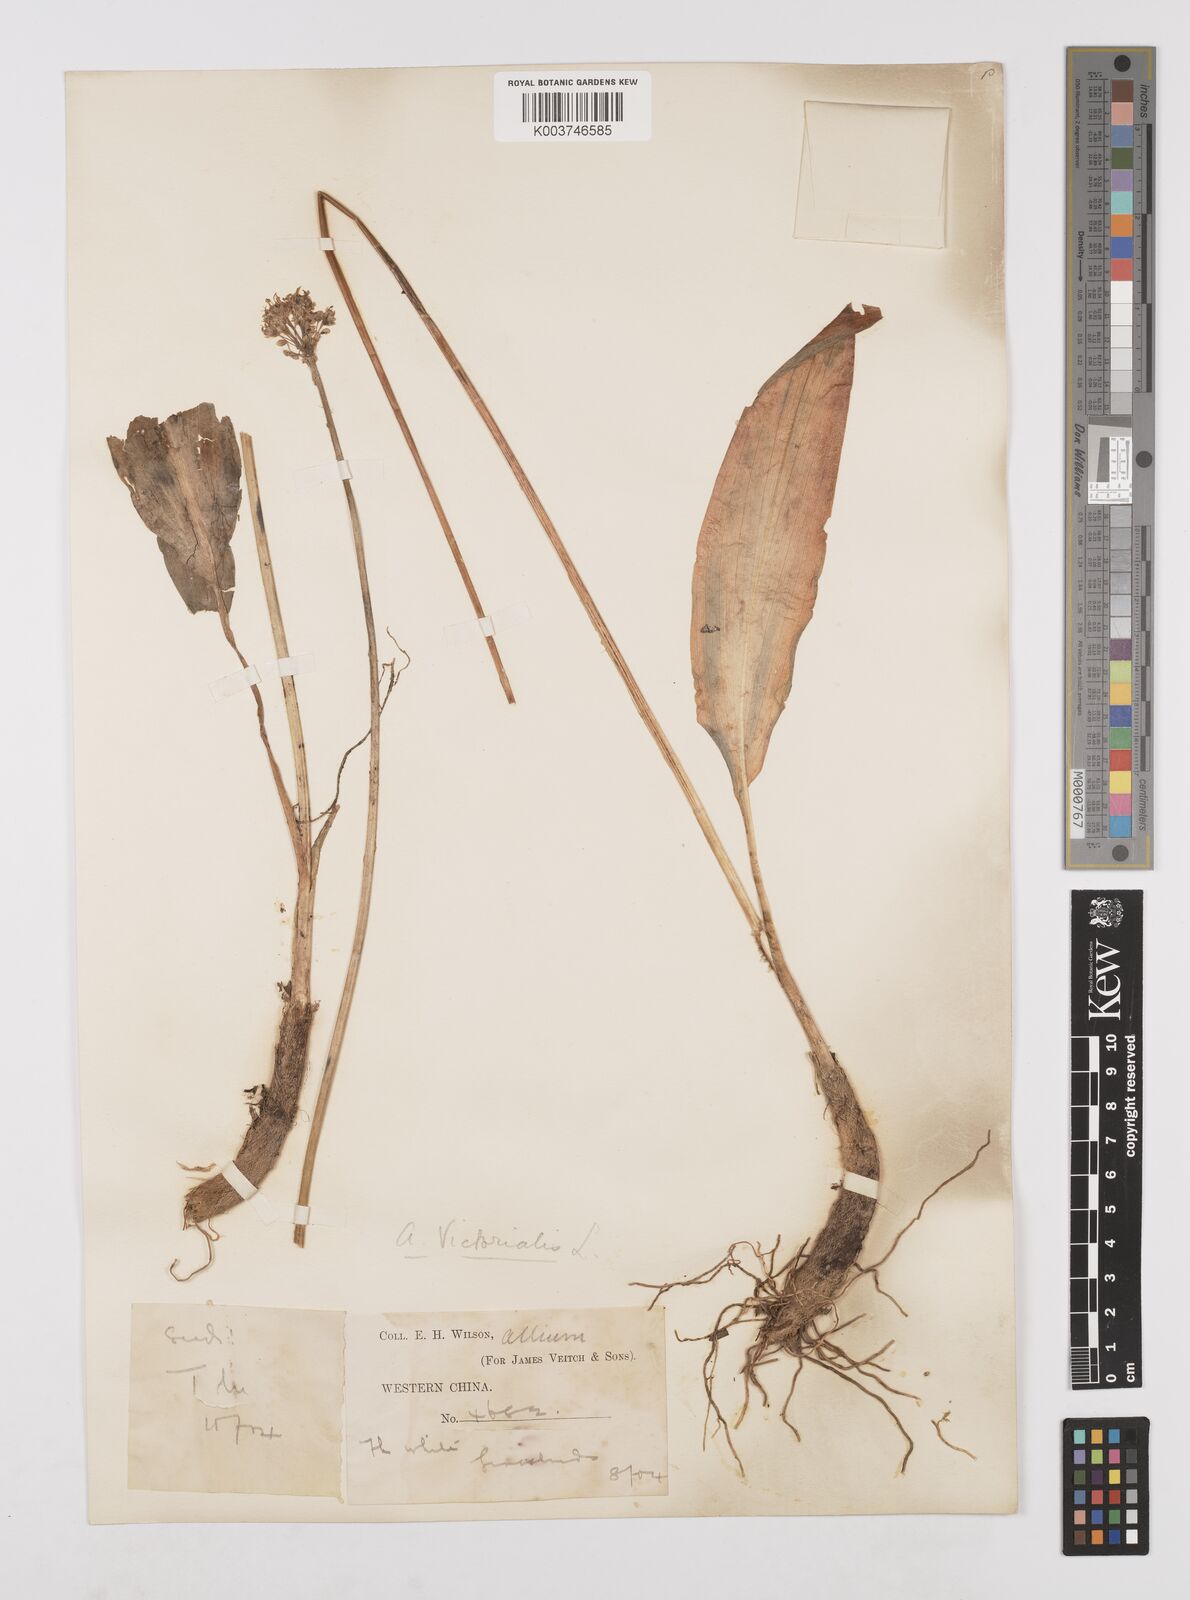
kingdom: Plantae
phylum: Tracheophyta
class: Liliopsida
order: Asparagales
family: Amaryllidaceae
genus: Allium
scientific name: Allium victorialis
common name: Alpine leek
